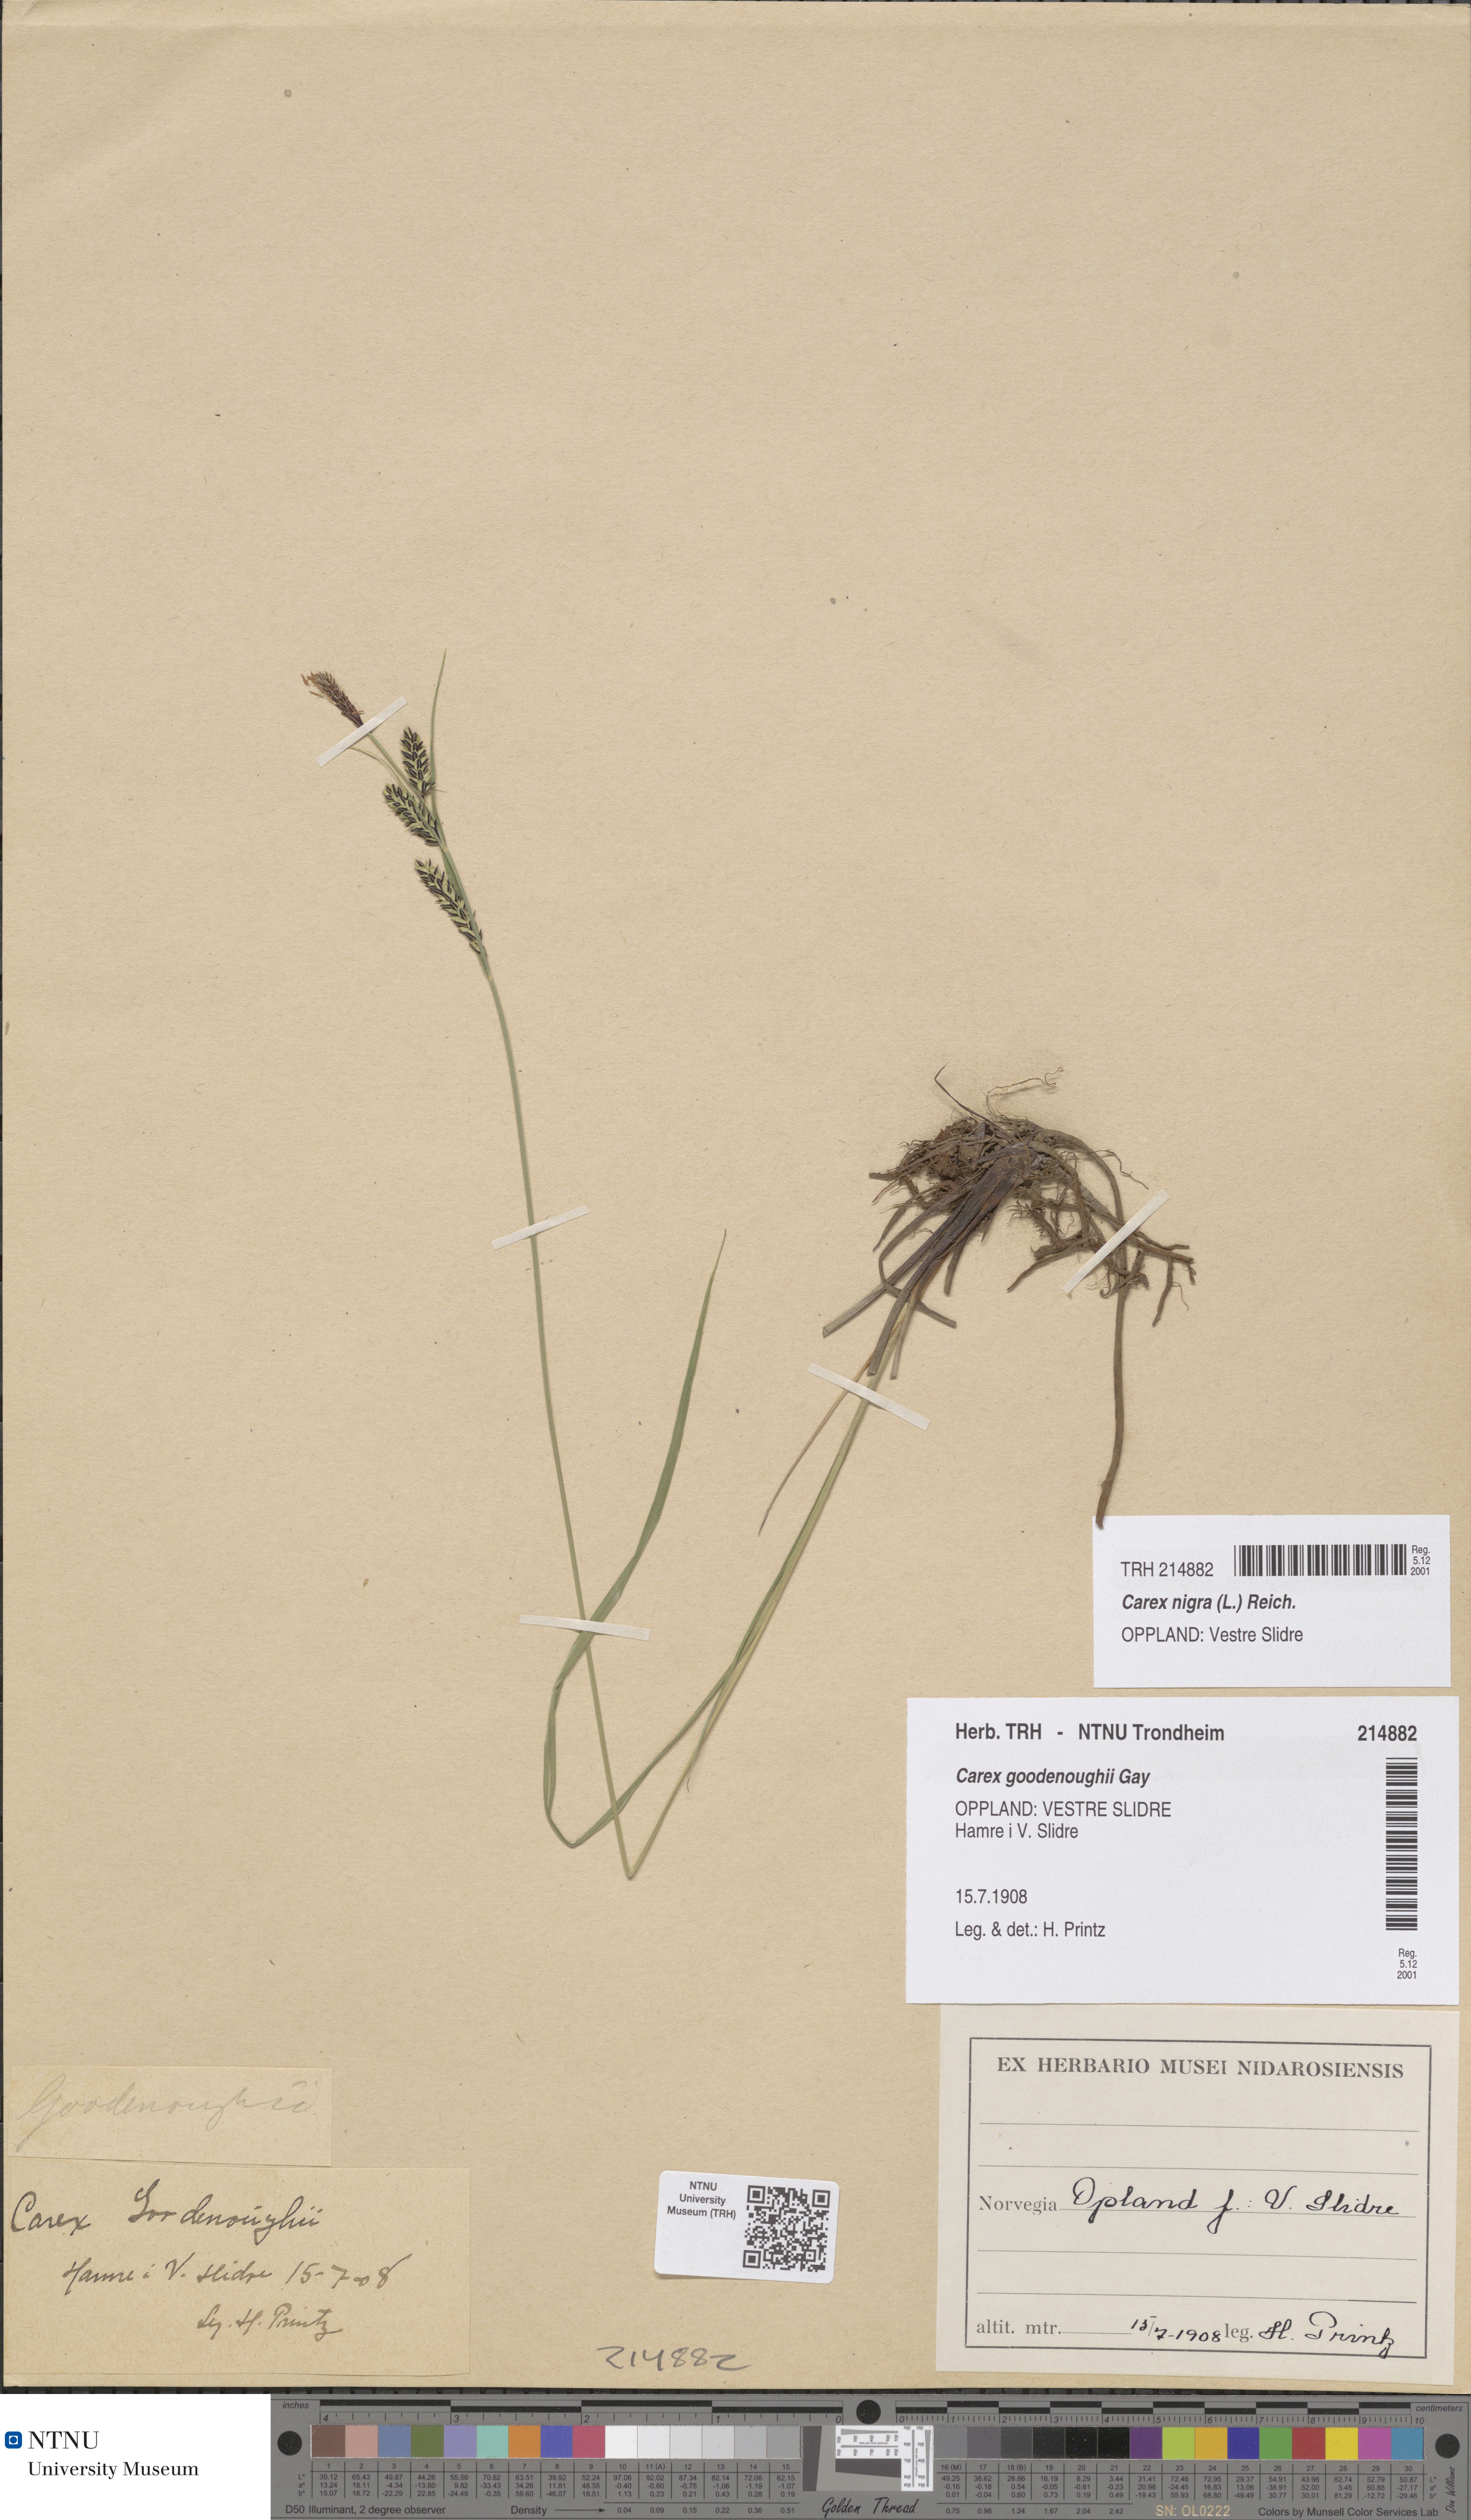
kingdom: Plantae
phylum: Tracheophyta
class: Liliopsida
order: Poales
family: Cyperaceae
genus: Carex
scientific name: Carex nigra
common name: Common sedge
